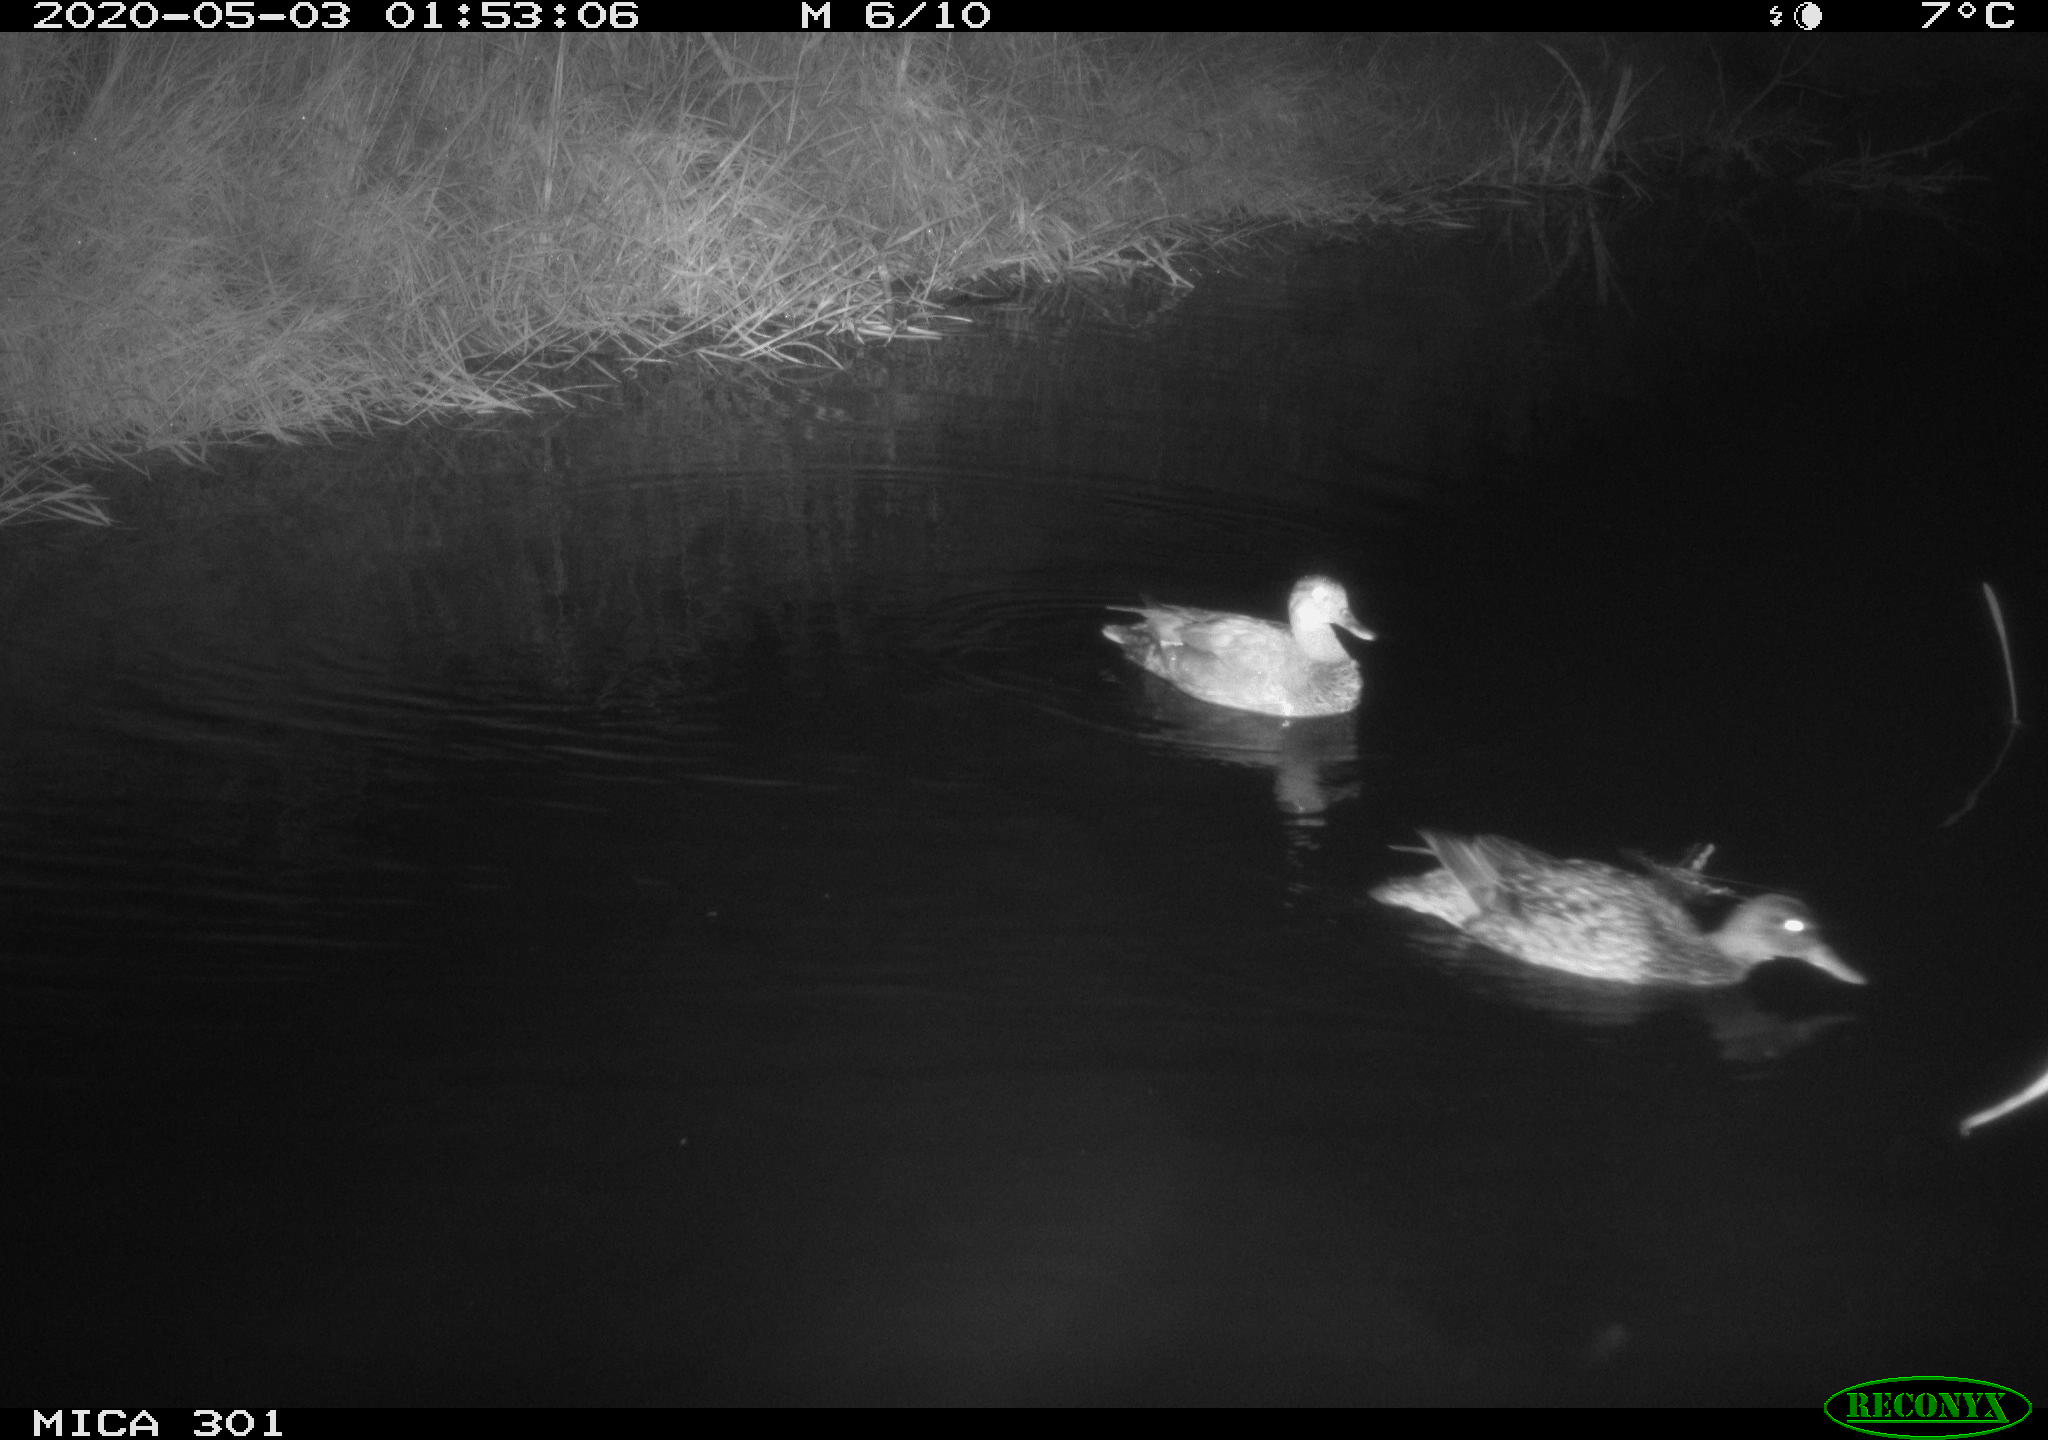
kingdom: Animalia
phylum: Chordata
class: Aves
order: Anseriformes
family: Anatidae
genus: Mareca
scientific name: Mareca strepera
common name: Gadwall
